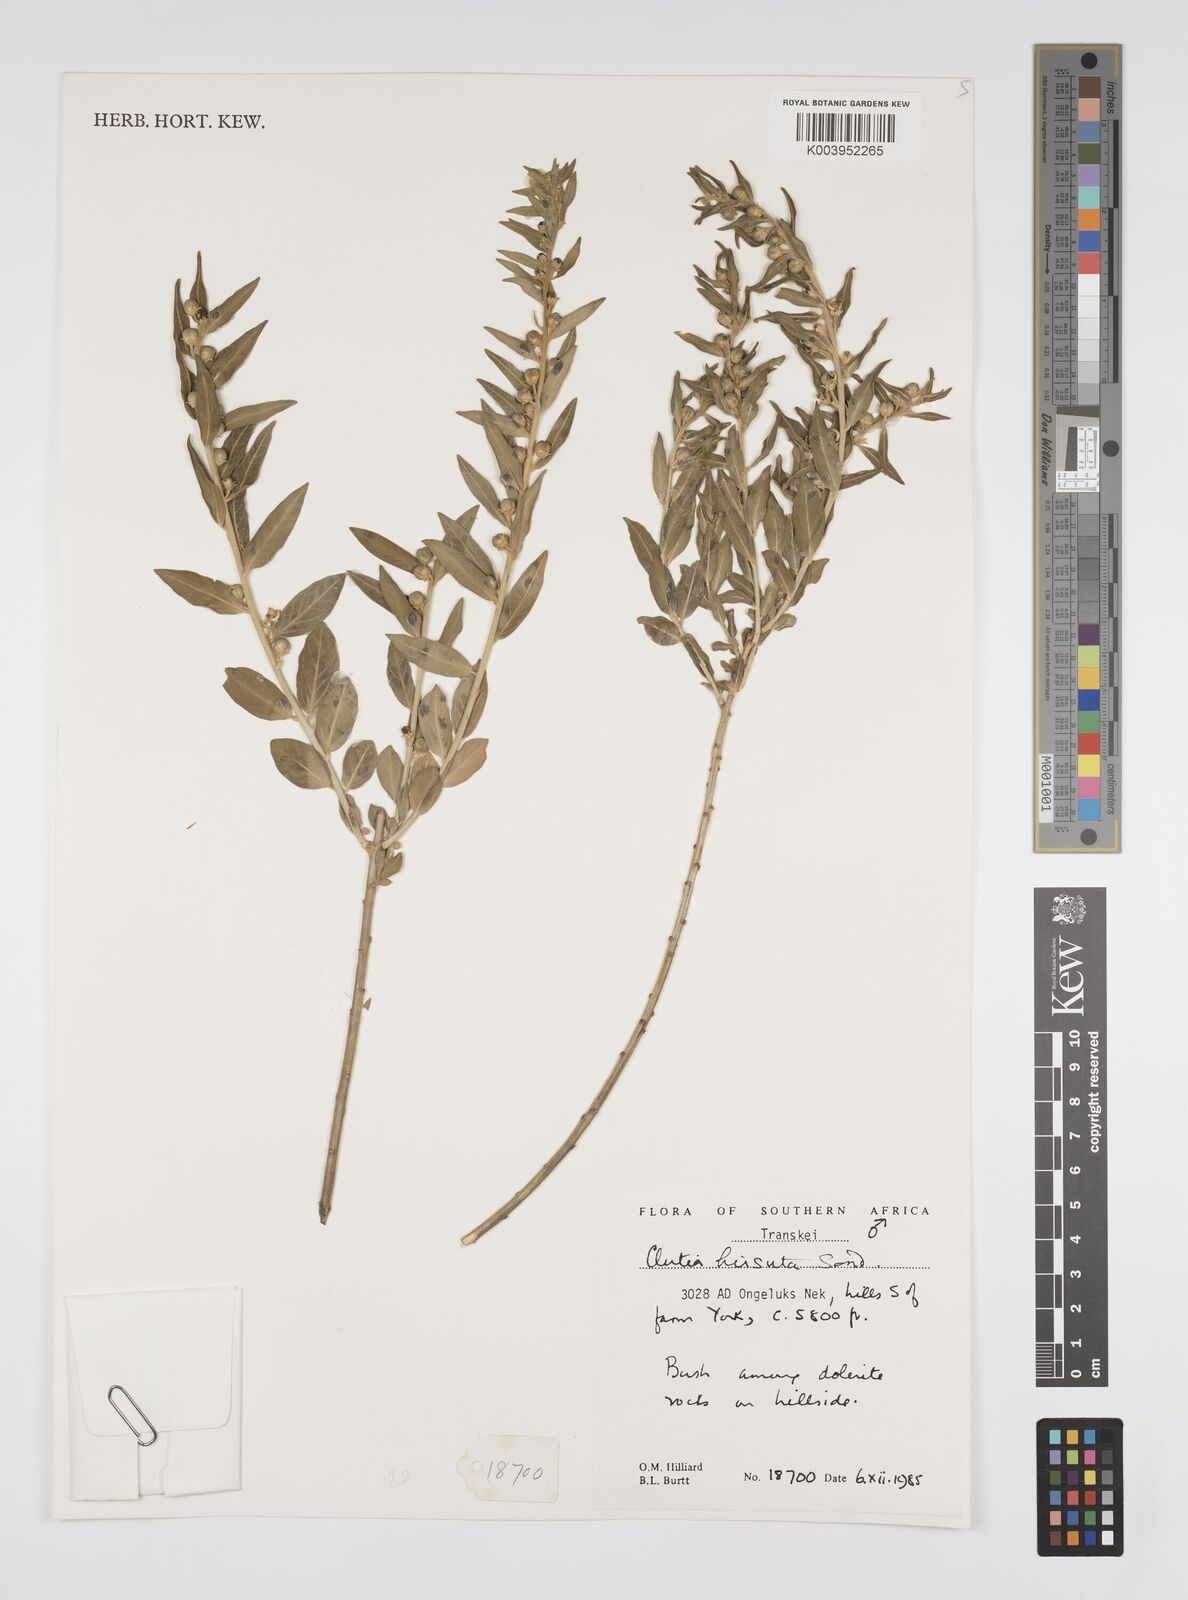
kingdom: Plantae
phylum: Tracheophyta
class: Magnoliopsida
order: Malpighiales
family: Peraceae
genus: Clutia
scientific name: Clutia affinis
